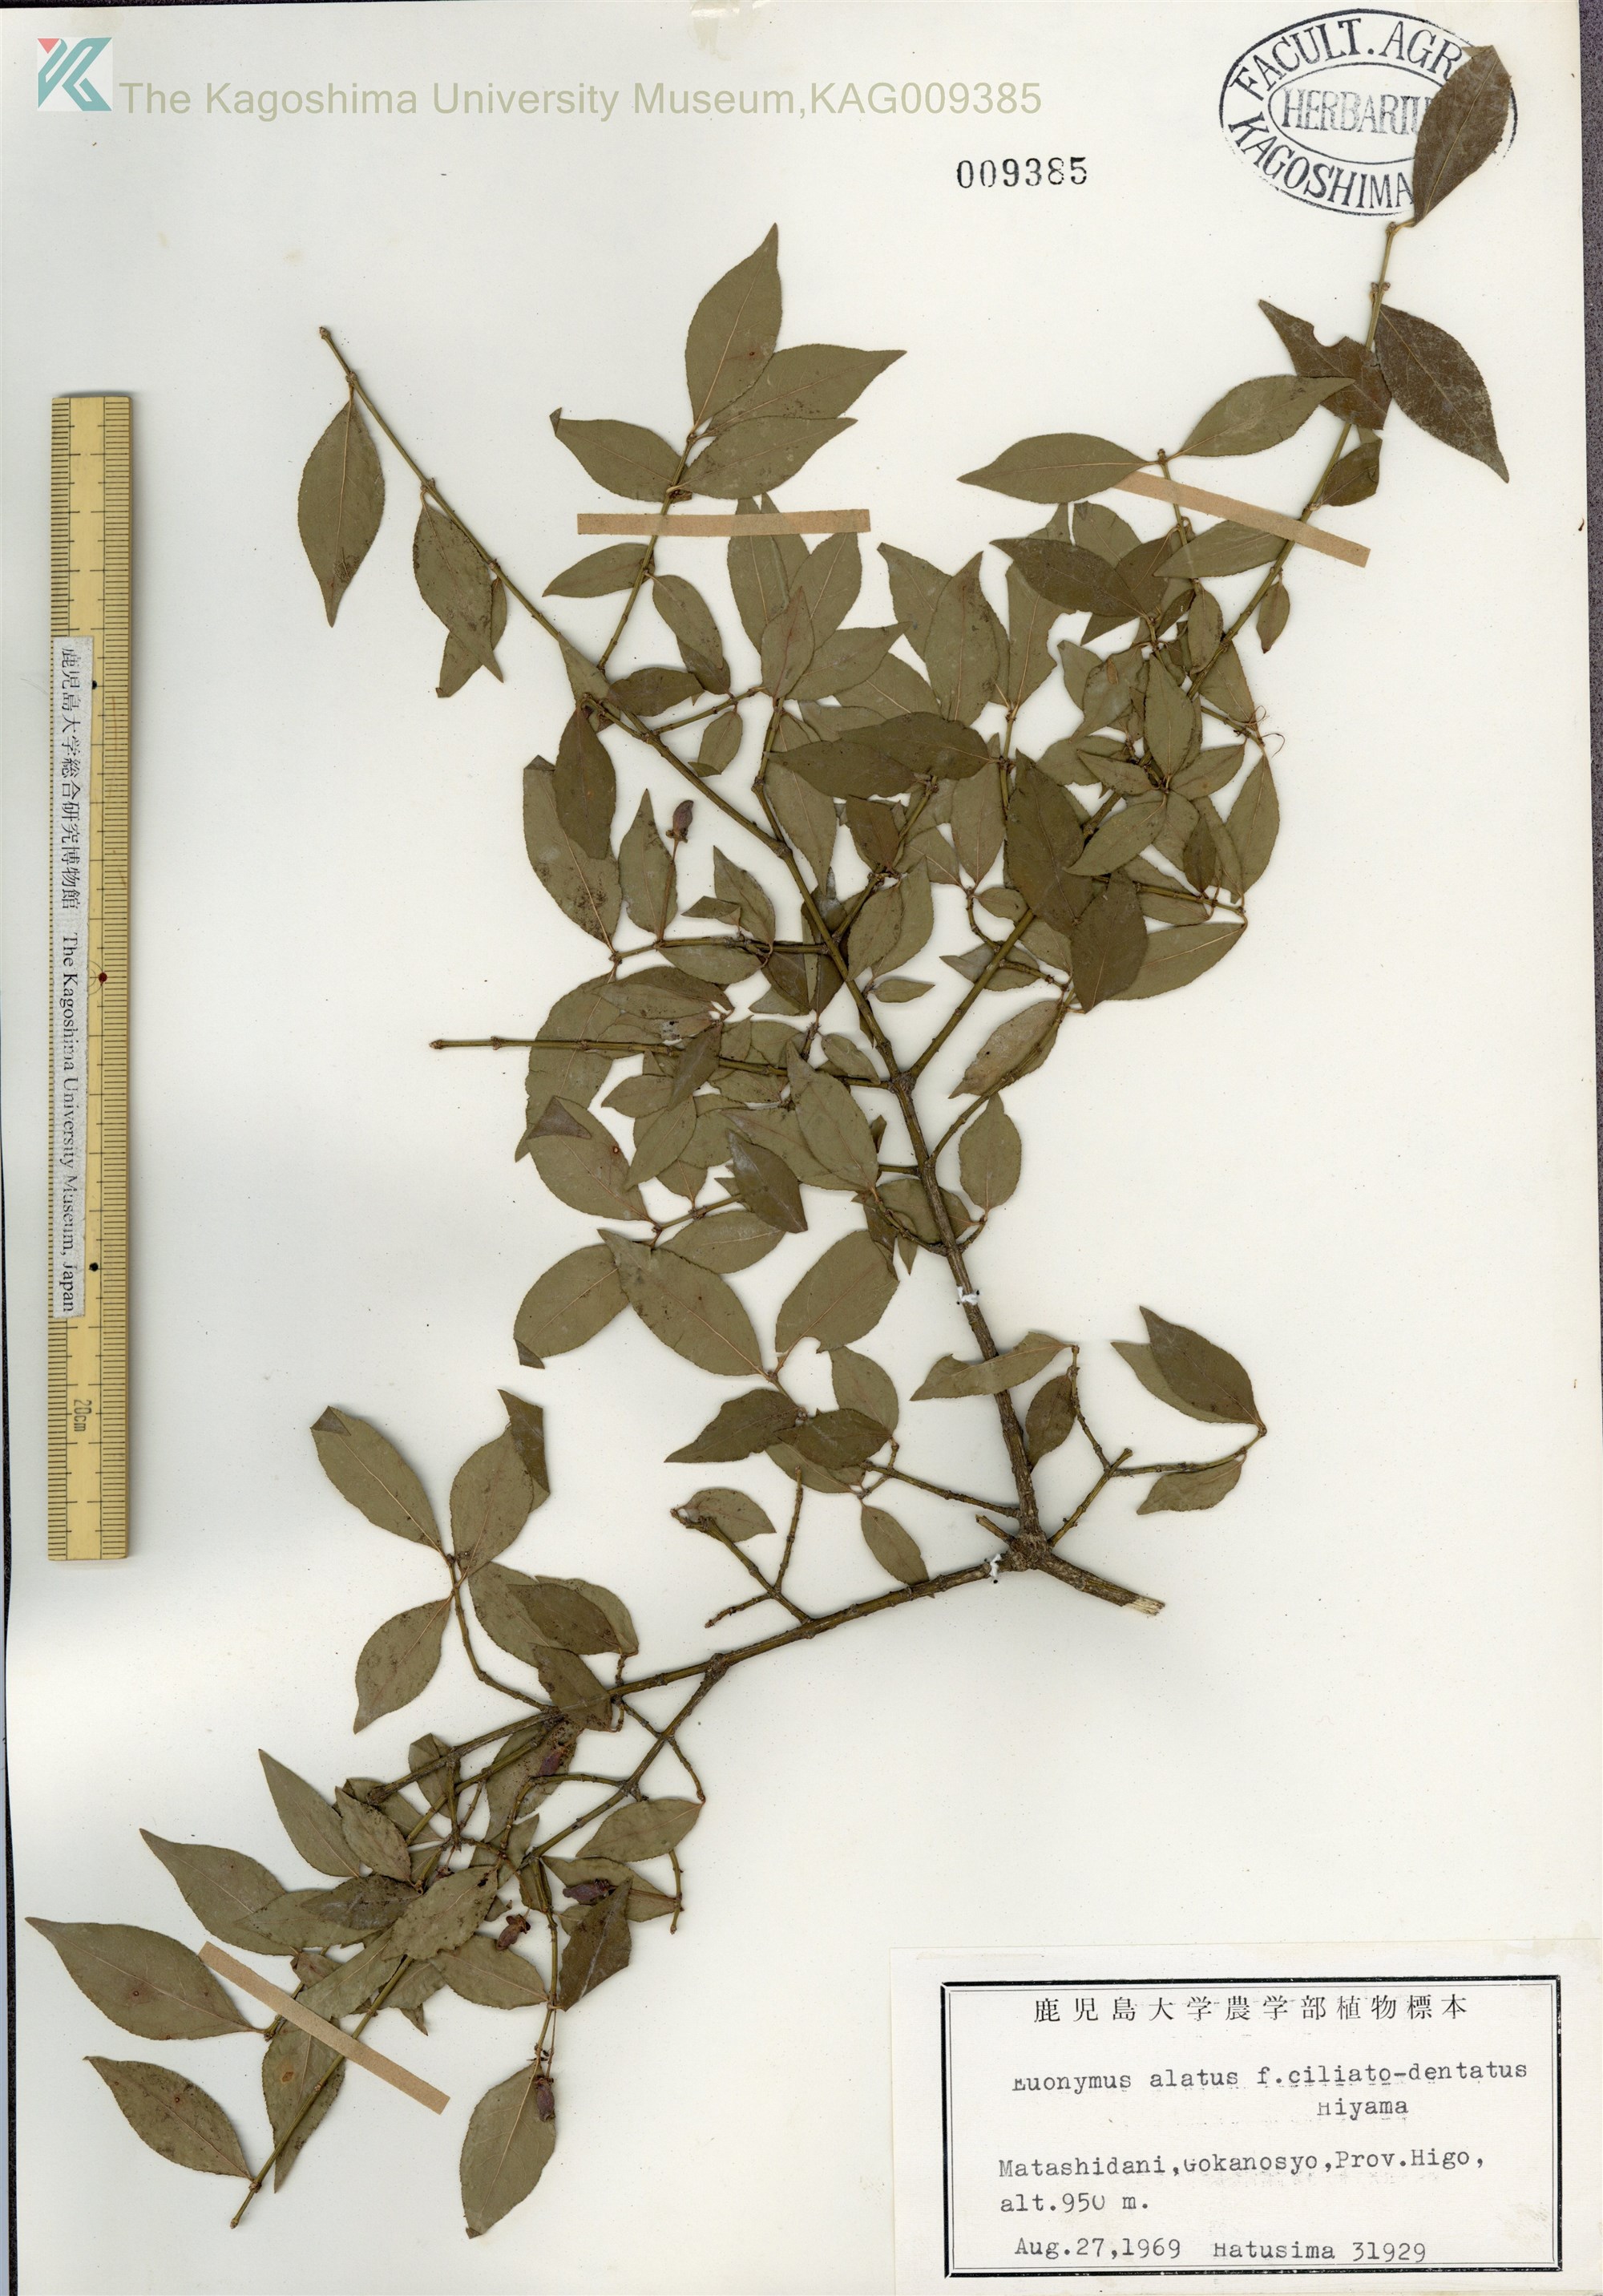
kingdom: Plantae
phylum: Tracheophyta
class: Magnoliopsida
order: Celastrales
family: Celastraceae
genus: Euonymus
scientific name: Euonymus alatus
